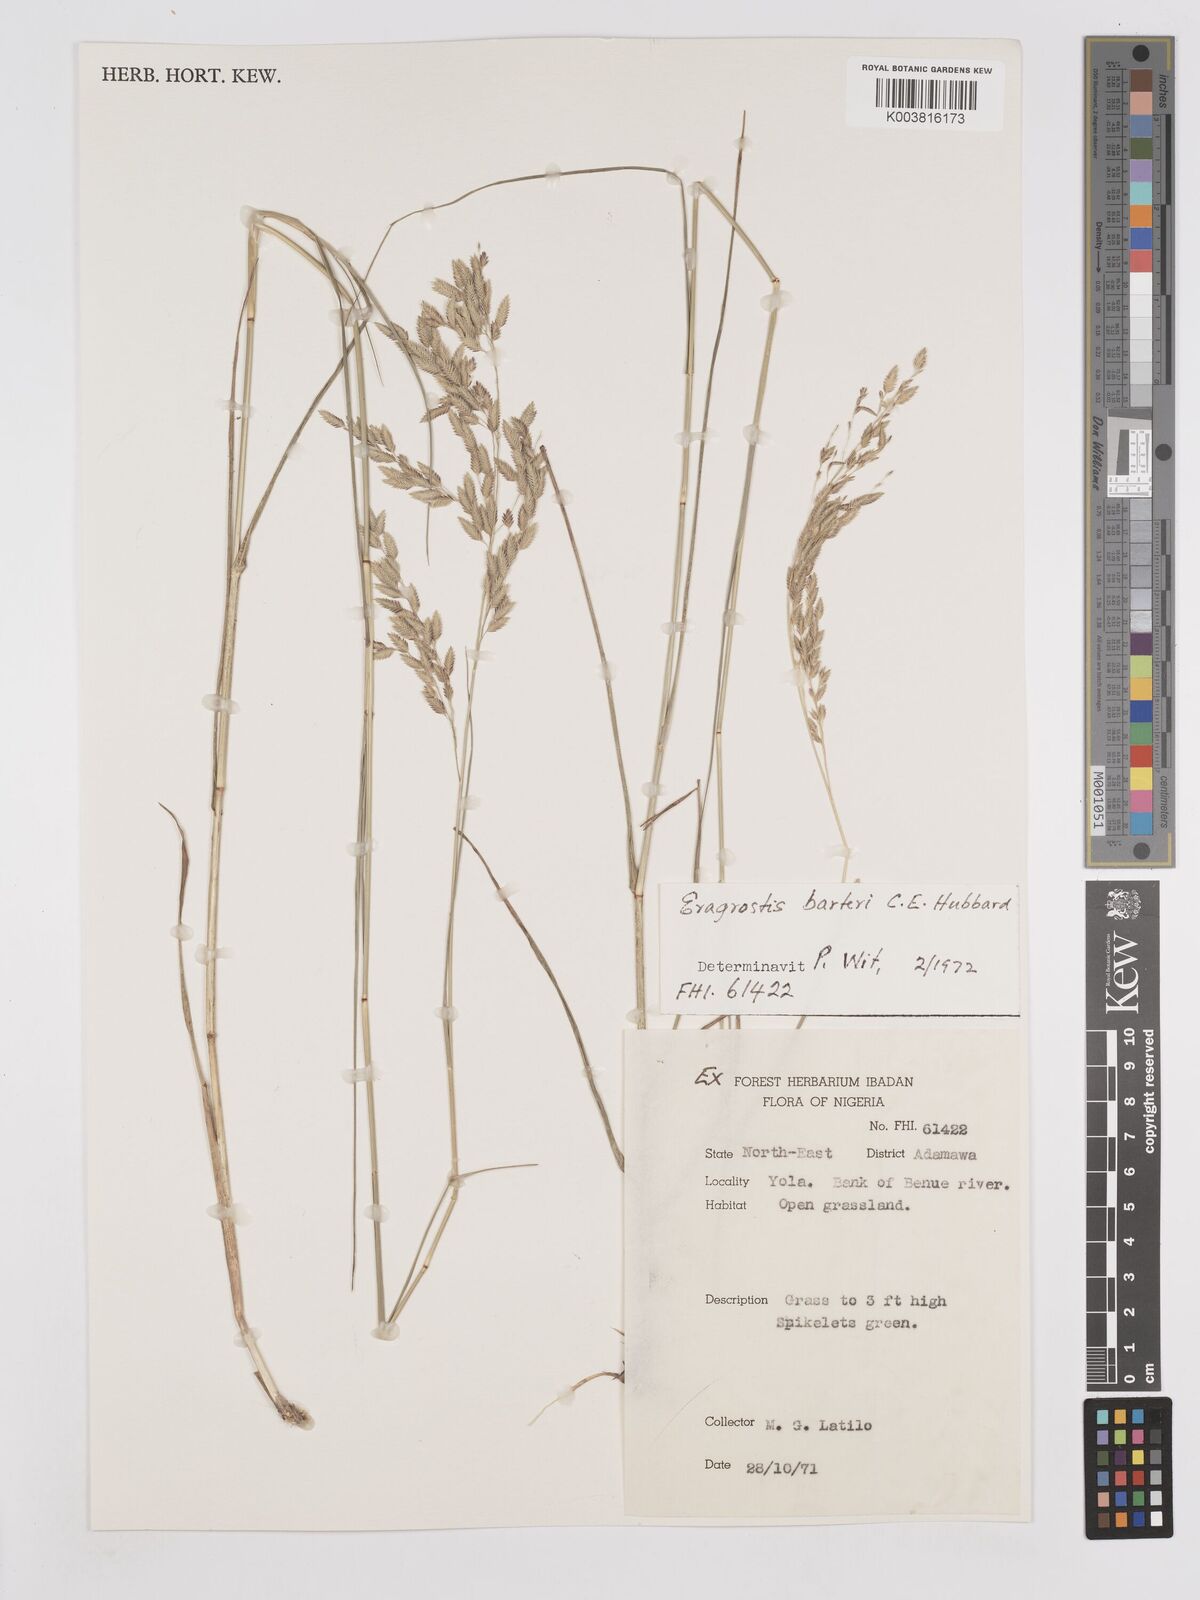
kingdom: Plantae
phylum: Tracheophyta
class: Liliopsida
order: Poales
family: Poaceae
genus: Eragrostis
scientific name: Eragrostis barteri
